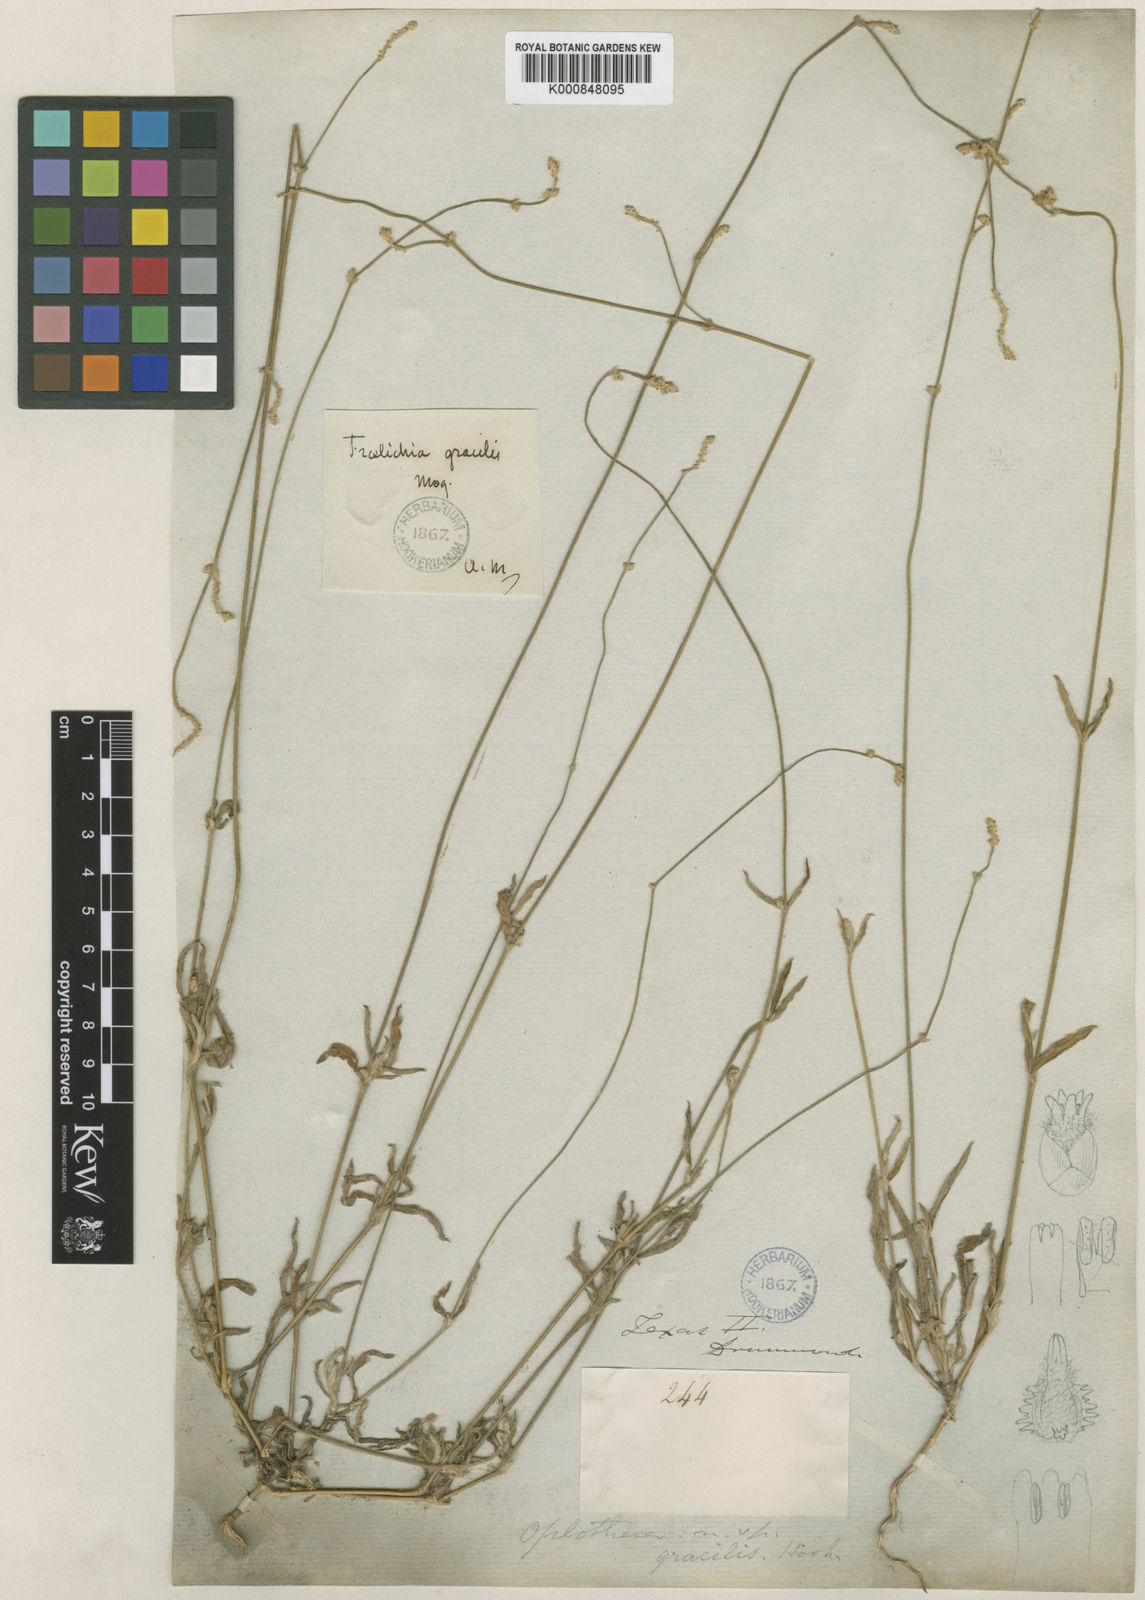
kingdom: Plantae
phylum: Tracheophyta
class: Magnoliopsida
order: Caryophyllales
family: Amaranthaceae
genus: Froelichia
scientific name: Froelichia gracilis
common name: Slender cottonweed
